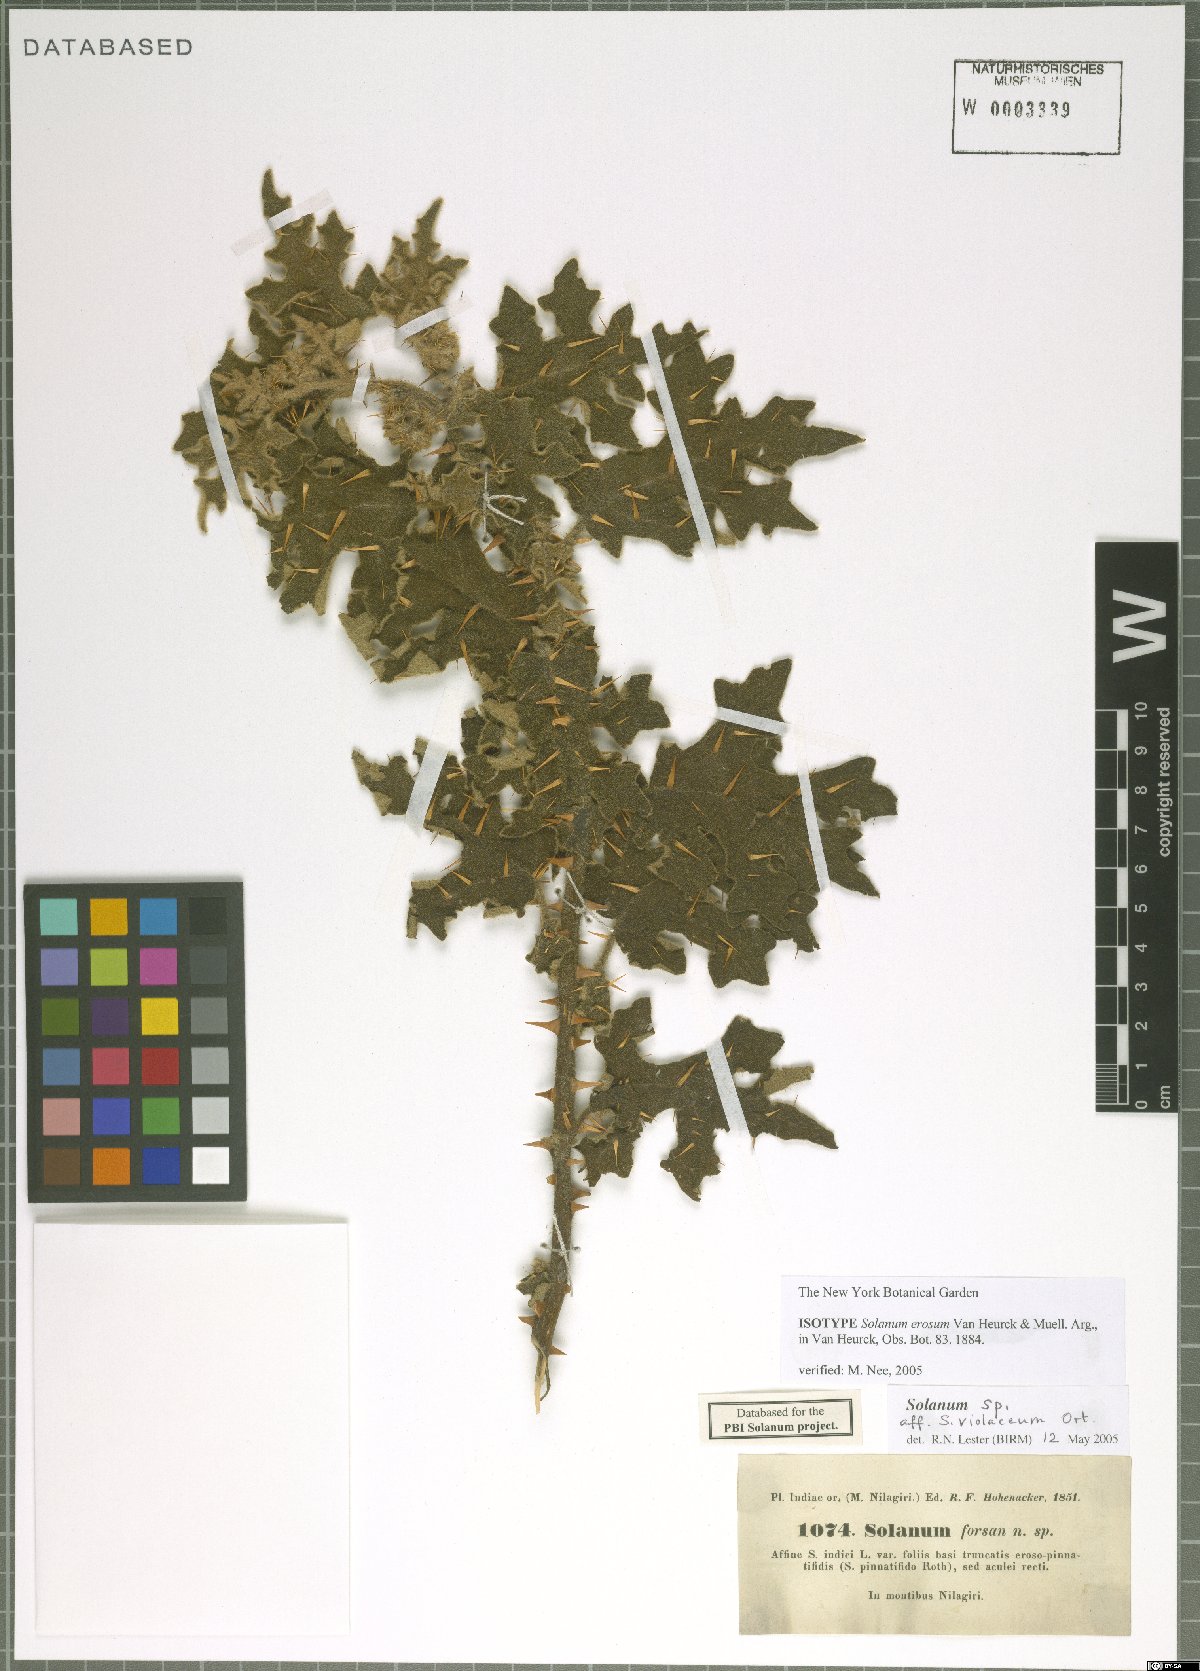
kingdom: Plantae
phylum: Tracheophyta
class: Magnoliopsida
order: Solanales
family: Solanaceae
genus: Solanum
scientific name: Solanum multiflorum
